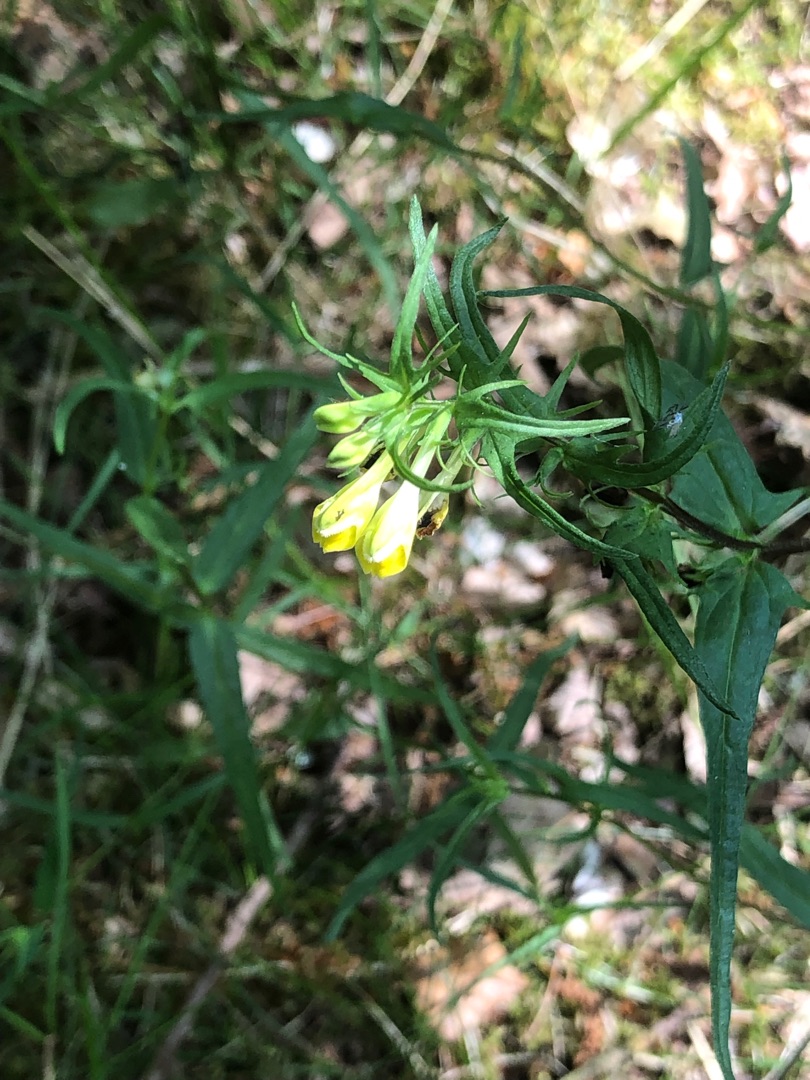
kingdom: Plantae
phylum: Tracheophyta
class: Magnoliopsida
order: Lamiales
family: Orobanchaceae
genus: Melampyrum
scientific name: Melampyrum pratense
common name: Almindelig kohvede
